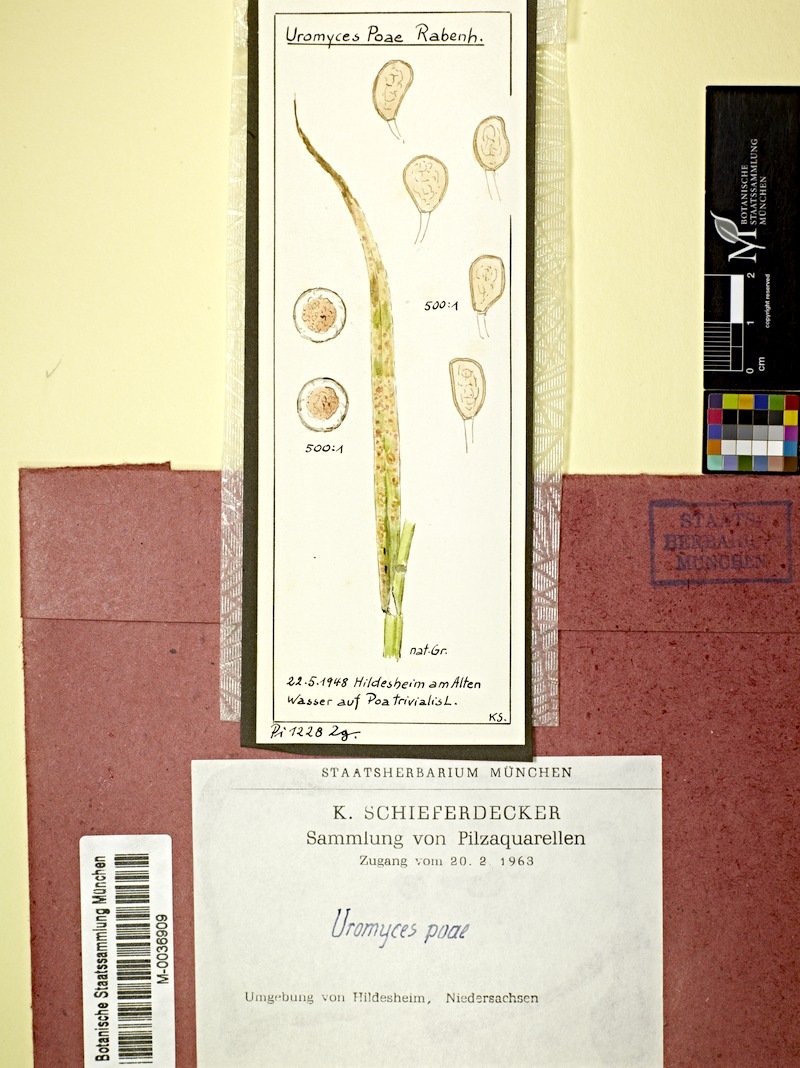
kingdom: Fungi
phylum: Basidiomycota
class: Pucciniomycetes
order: Pucciniales
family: Pucciniaceae
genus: Uromyces
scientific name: Uromyces dactylidis
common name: Celandine clustercup rust
